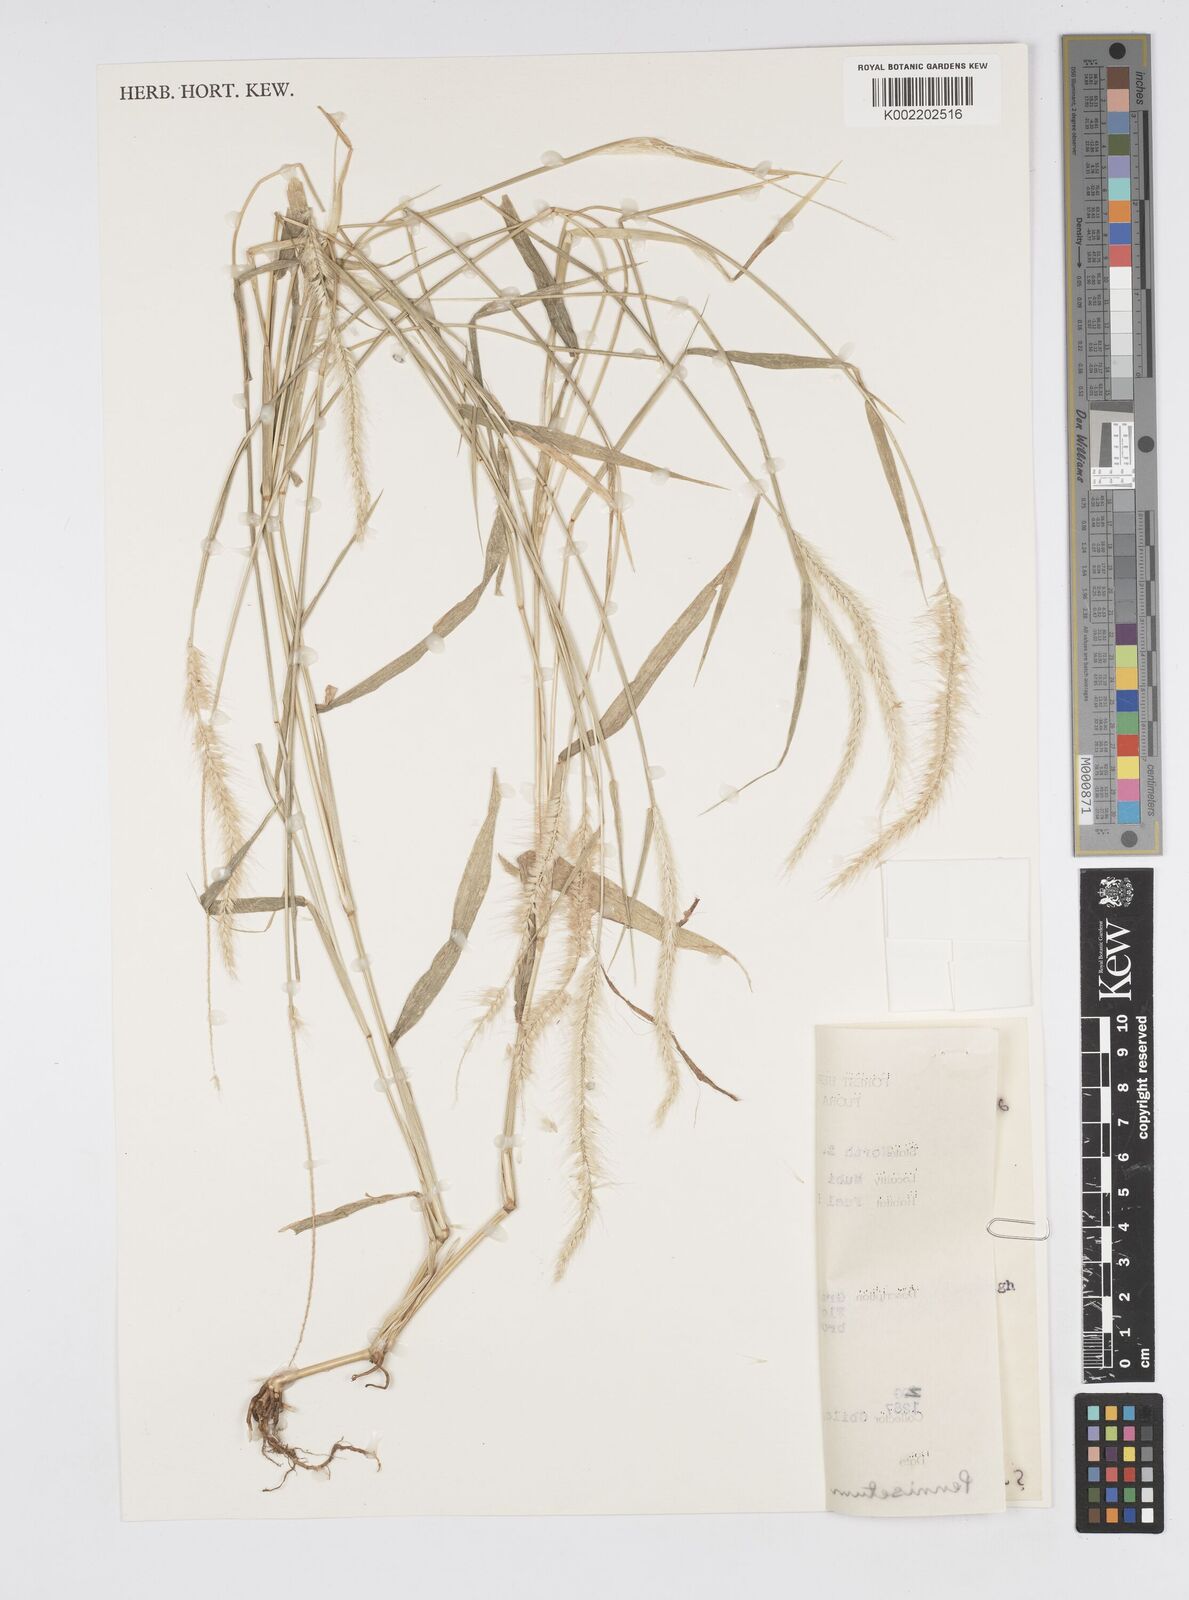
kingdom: Plantae
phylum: Tracheophyta
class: Liliopsida
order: Poales
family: Poaceae
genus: Cenchrus
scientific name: Cenchrus Pennisetum spec
